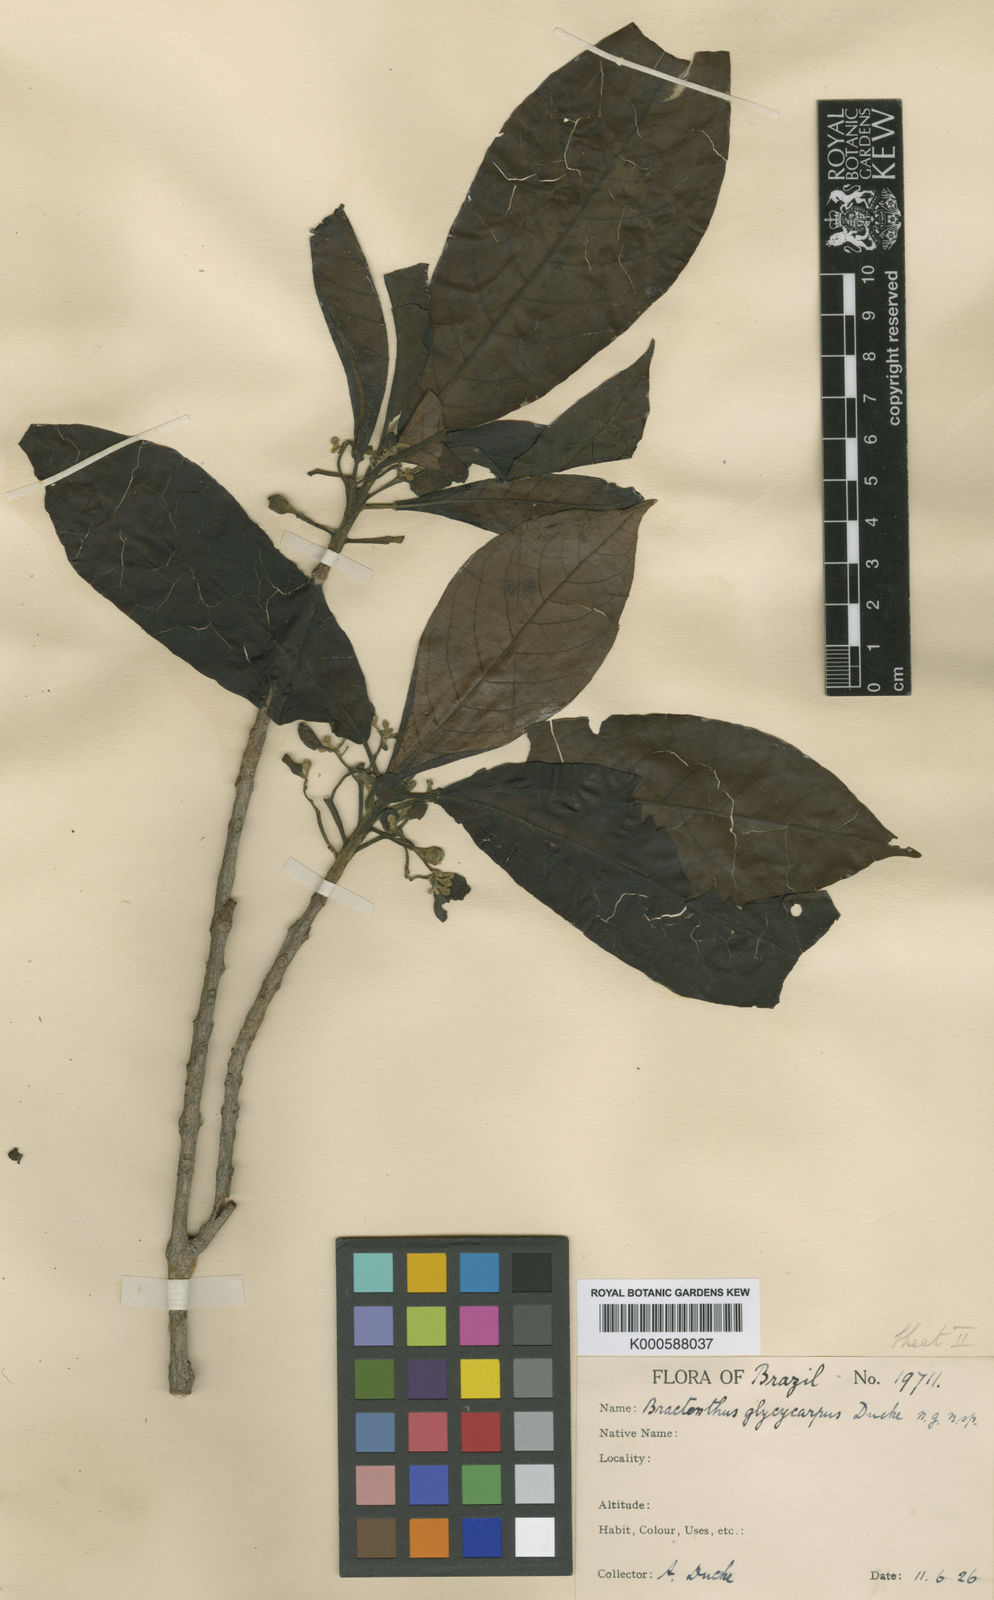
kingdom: Plantae
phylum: Tracheophyta
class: Magnoliopsida
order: Laurales
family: Siparunaceae
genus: Siparuna
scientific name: Siparuna glycycarpa
